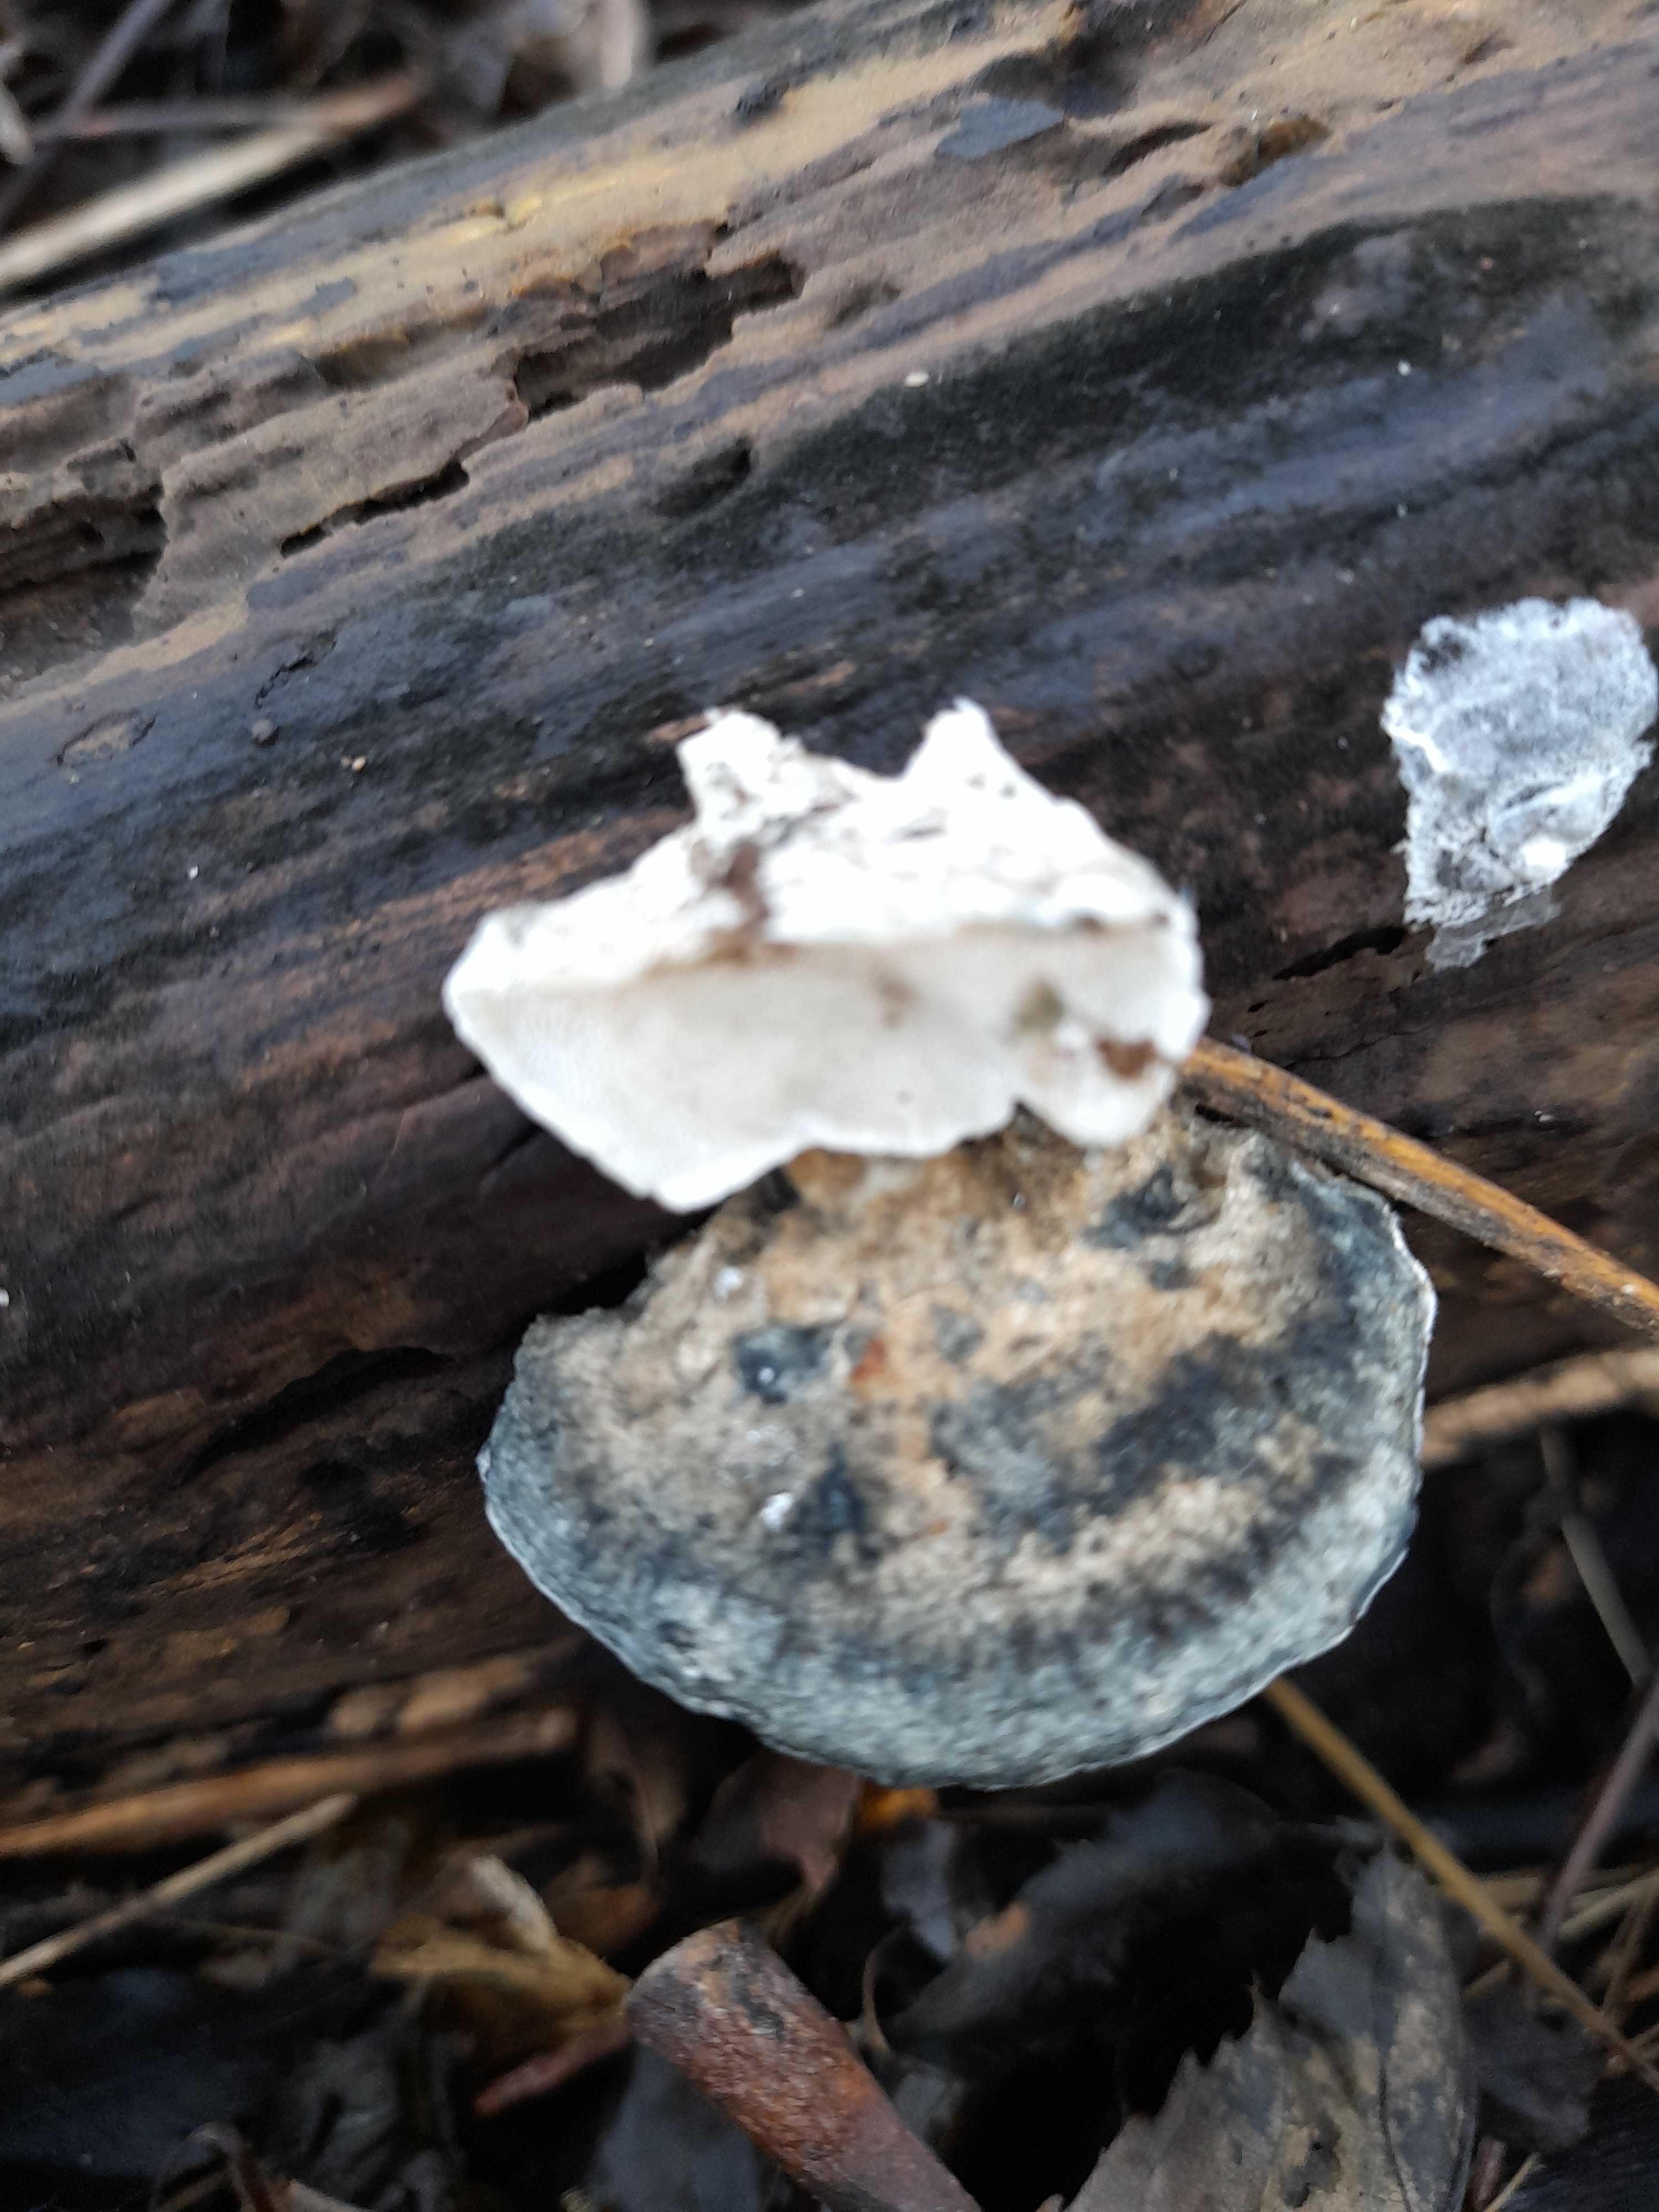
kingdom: Fungi
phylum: Basidiomycota
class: Agaricomycetes
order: Polyporales
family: Polyporaceae
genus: Cyanosporus
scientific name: Cyanosporus alni
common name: blegblå kødporesvamp
